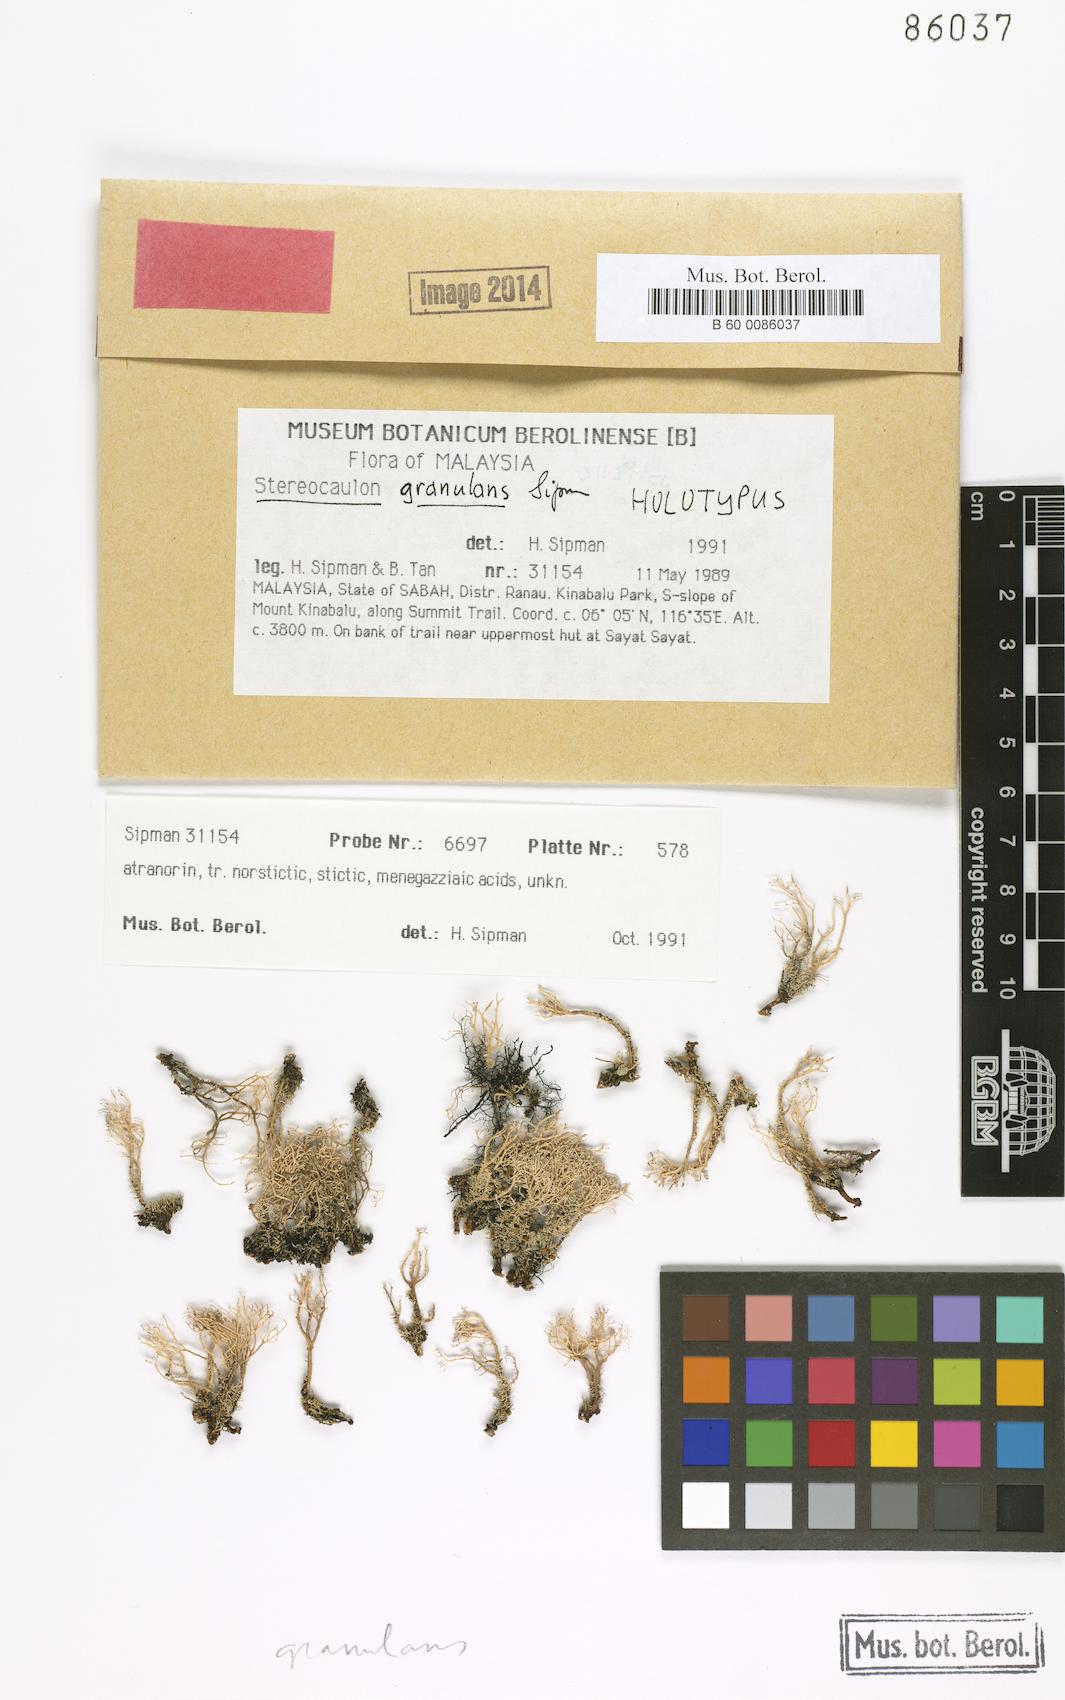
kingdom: Fungi
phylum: Ascomycota
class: Lecanoromycetes
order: Lecanorales
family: Stereocaulaceae
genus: Stereocaulon
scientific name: Stereocaulon
